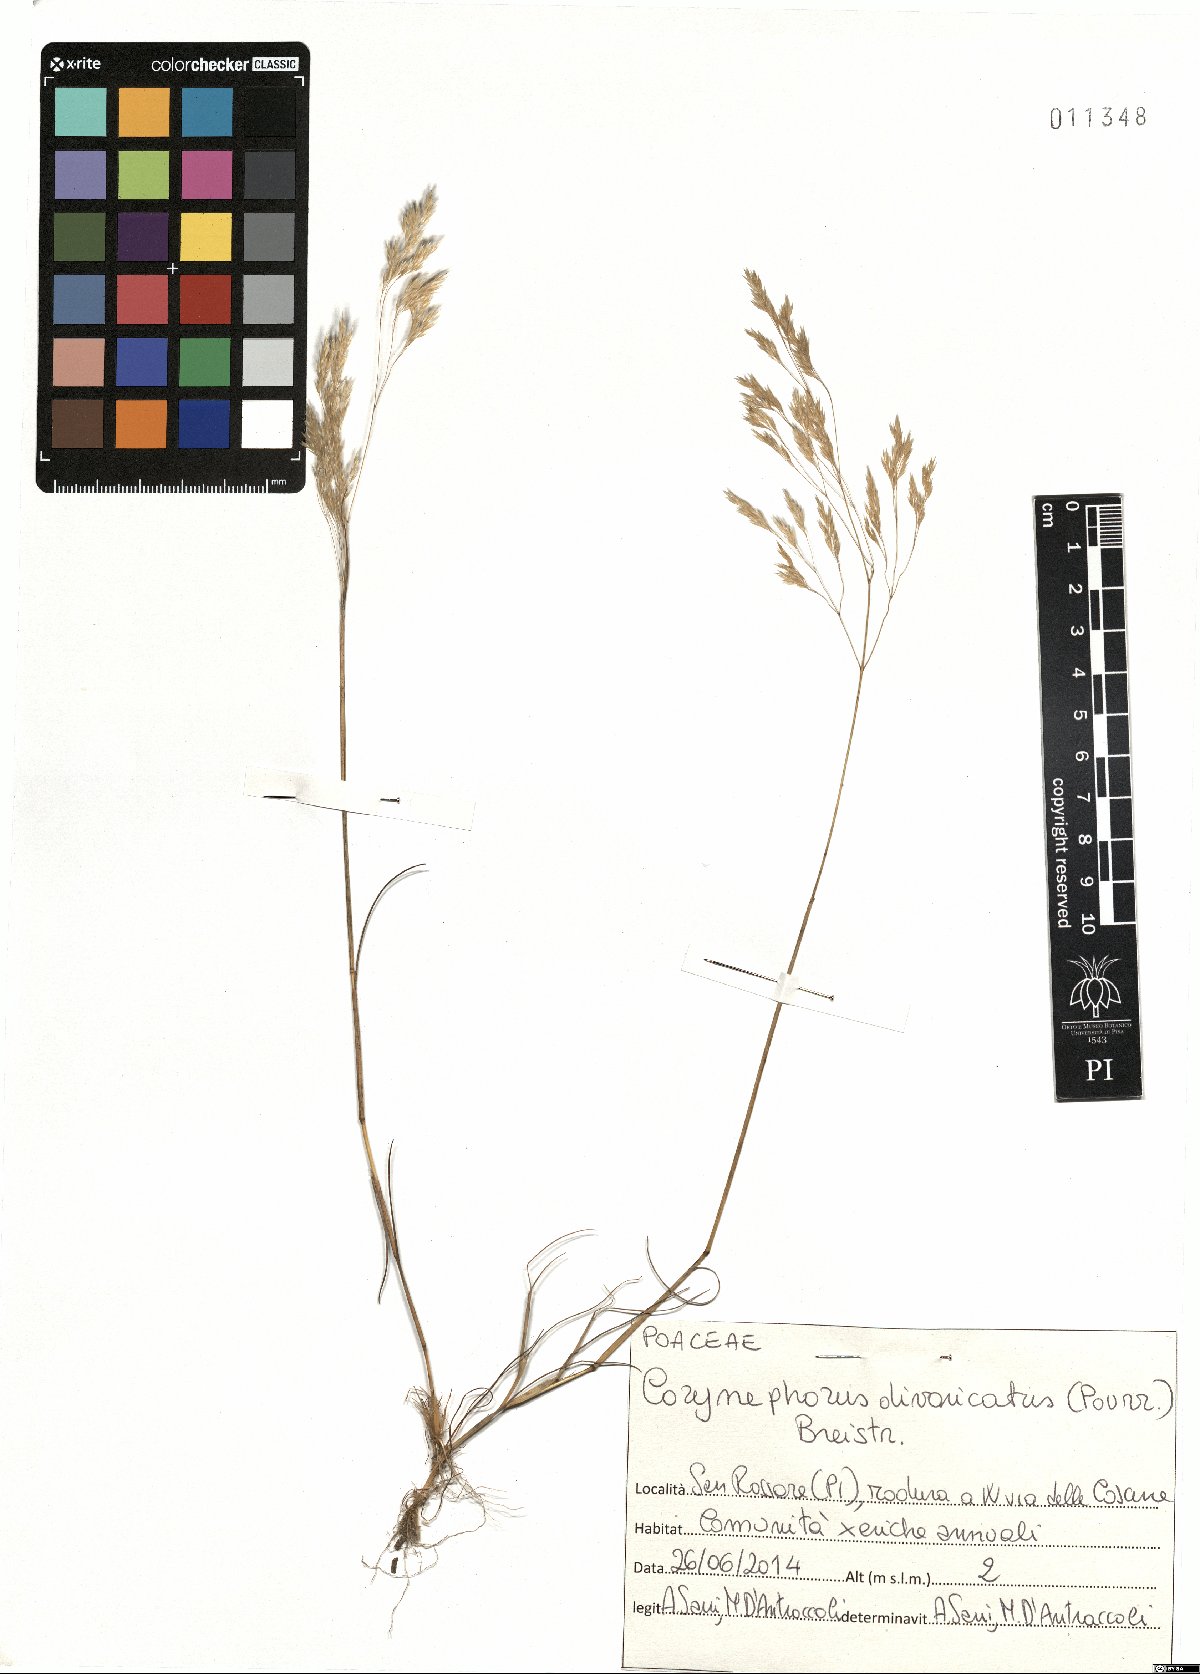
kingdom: Plantae
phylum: Tracheophyta
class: Liliopsida
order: Poales
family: Poaceae
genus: Corynephorus
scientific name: Corynephorus divaricatus
